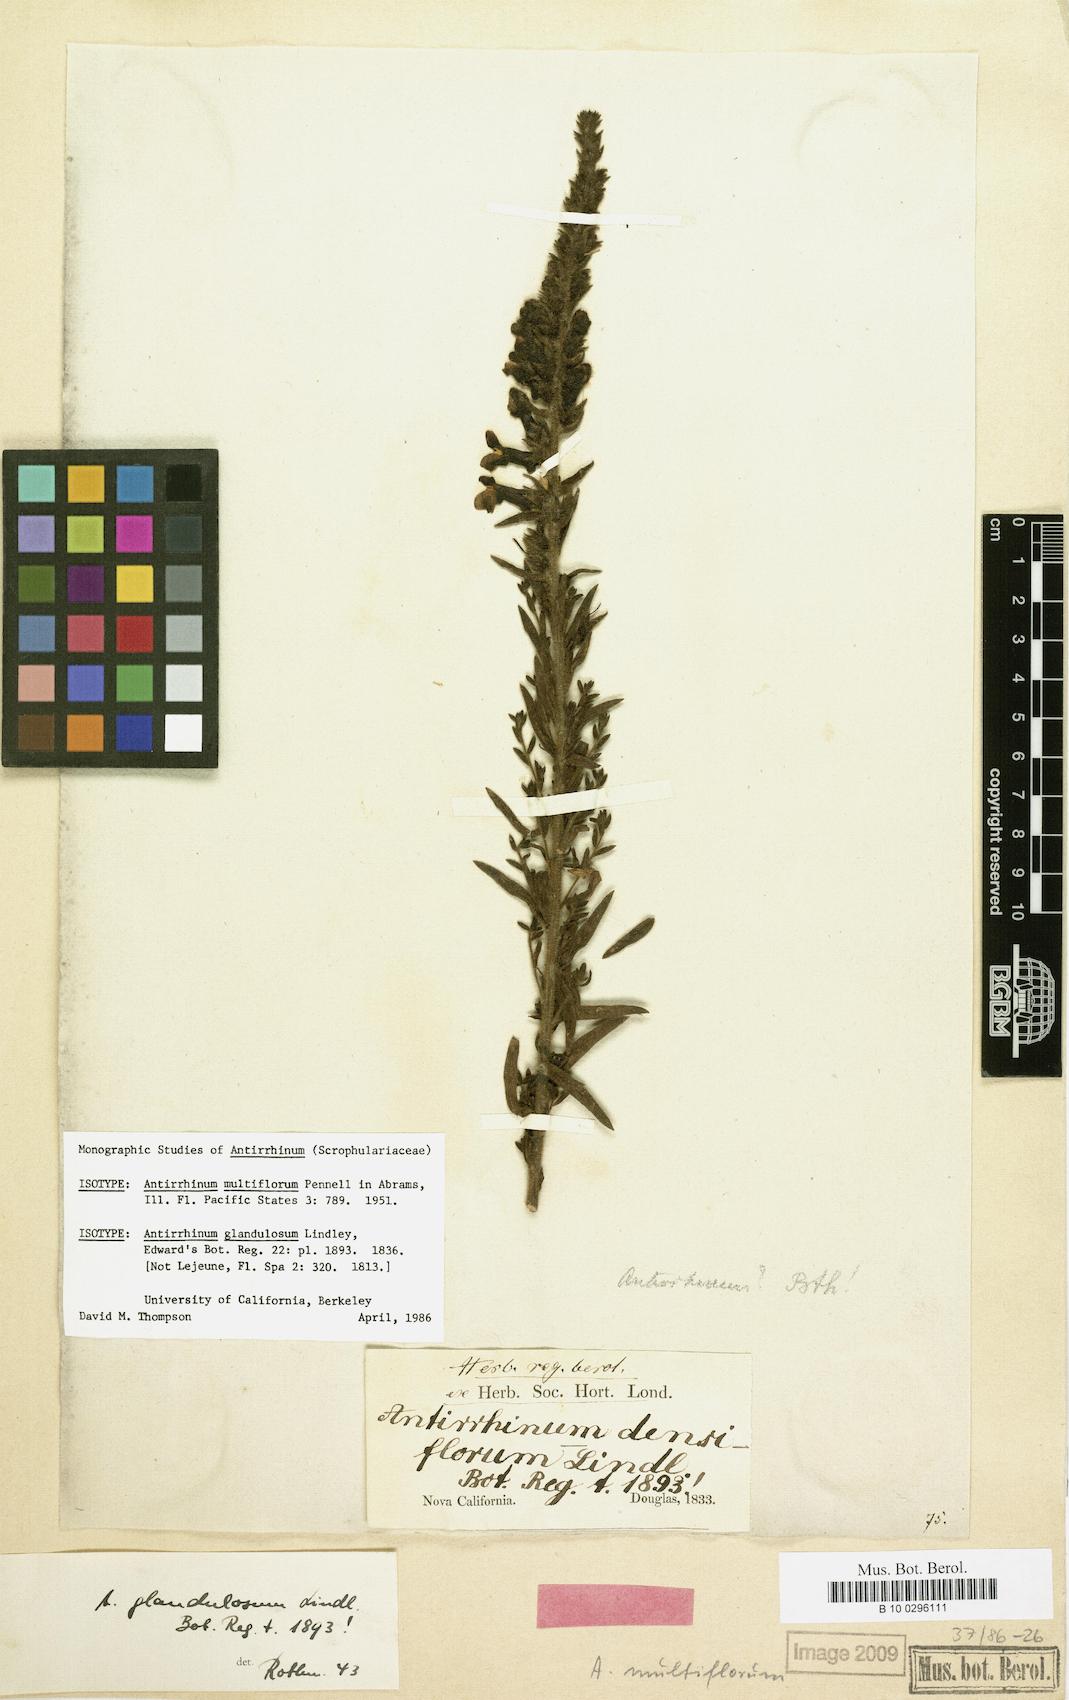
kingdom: Plantae
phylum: Tracheophyta
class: Magnoliopsida
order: Lamiales
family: Plantaginaceae
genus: Sairocarpus
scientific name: Sairocarpus multiflorus
